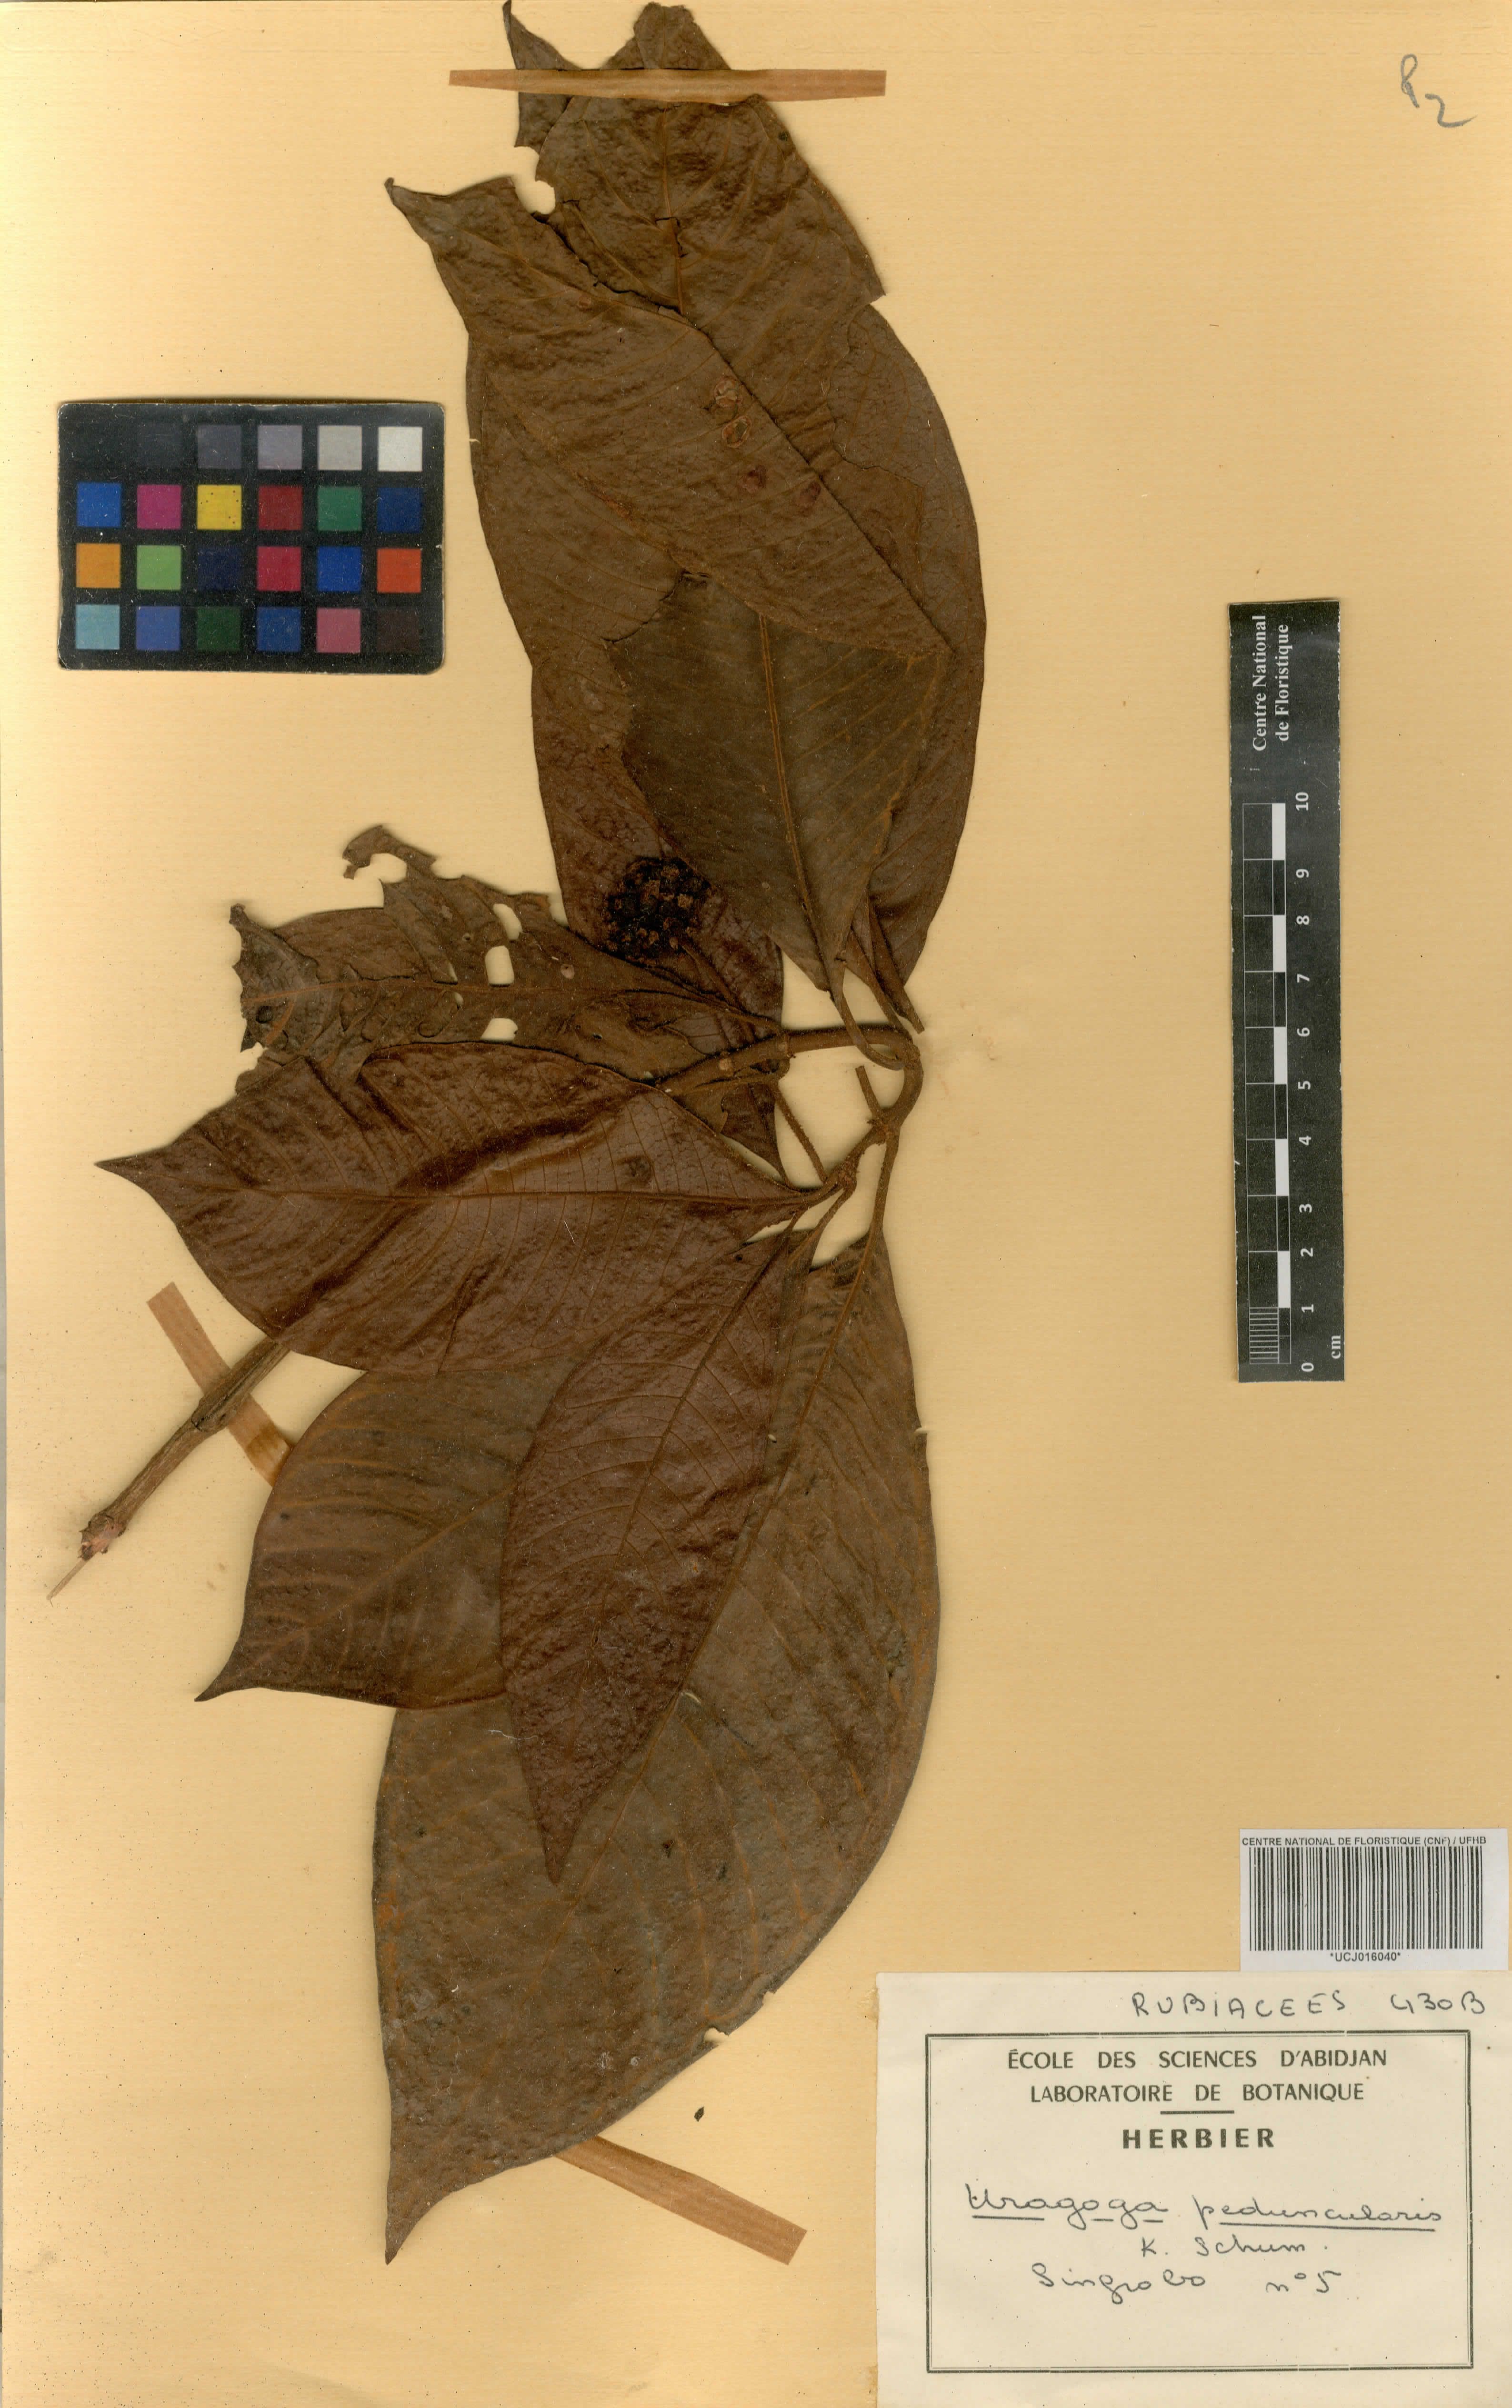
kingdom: Plantae
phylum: Tracheophyta
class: Magnoliopsida
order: Gentianales
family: Rubiaceae
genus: Psychotria
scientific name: Psychotria peduncularis
